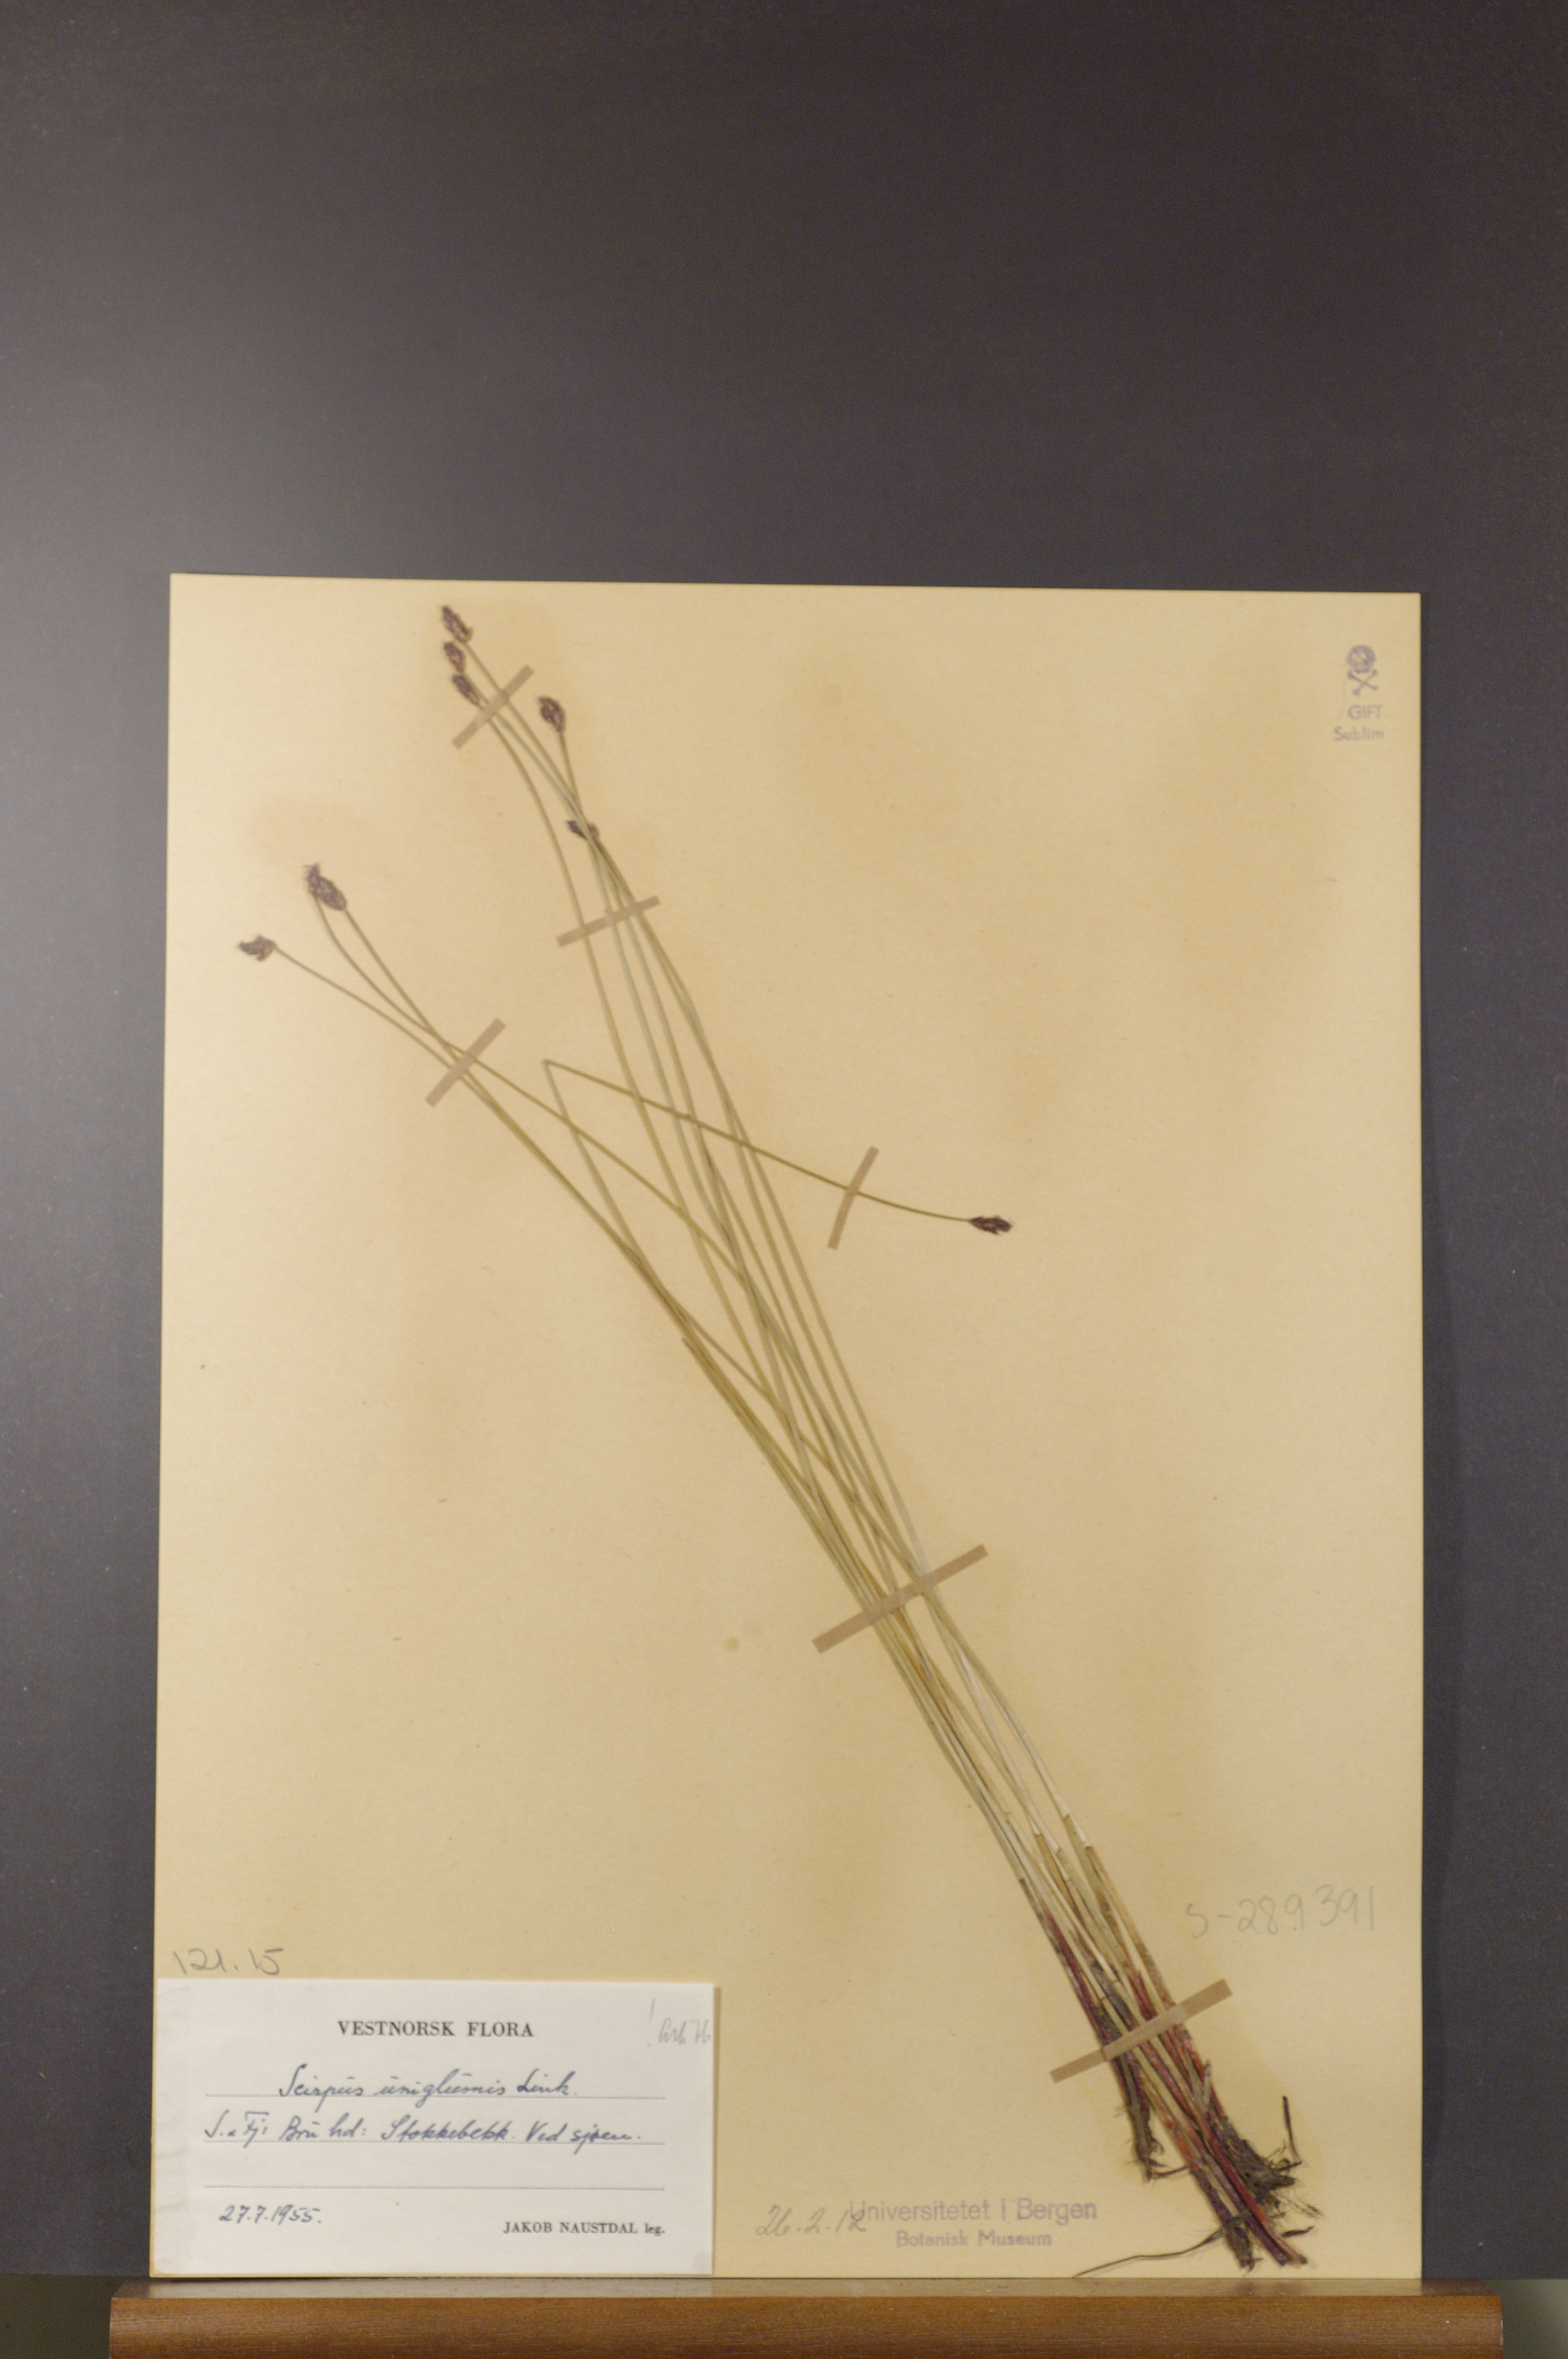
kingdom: Plantae
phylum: Tracheophyta
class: Liliopsida
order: Poales
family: Cyperaceae
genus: Eleocharis
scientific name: Eleocharis uniglumis
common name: Slender spike-rush
